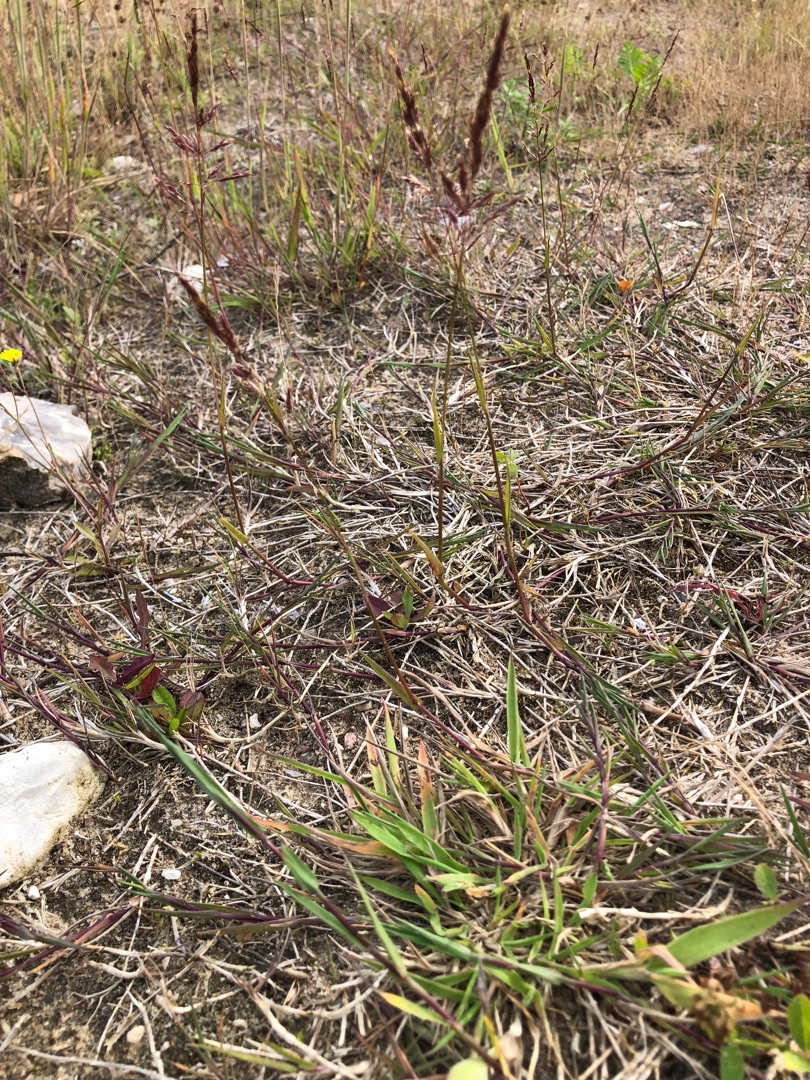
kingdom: Plantae
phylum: Tracheophyta
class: Liliopsida
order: Poales
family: Poaceae
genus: Agrostis
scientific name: Agrostis stolonifera
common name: Kryb-hvene
